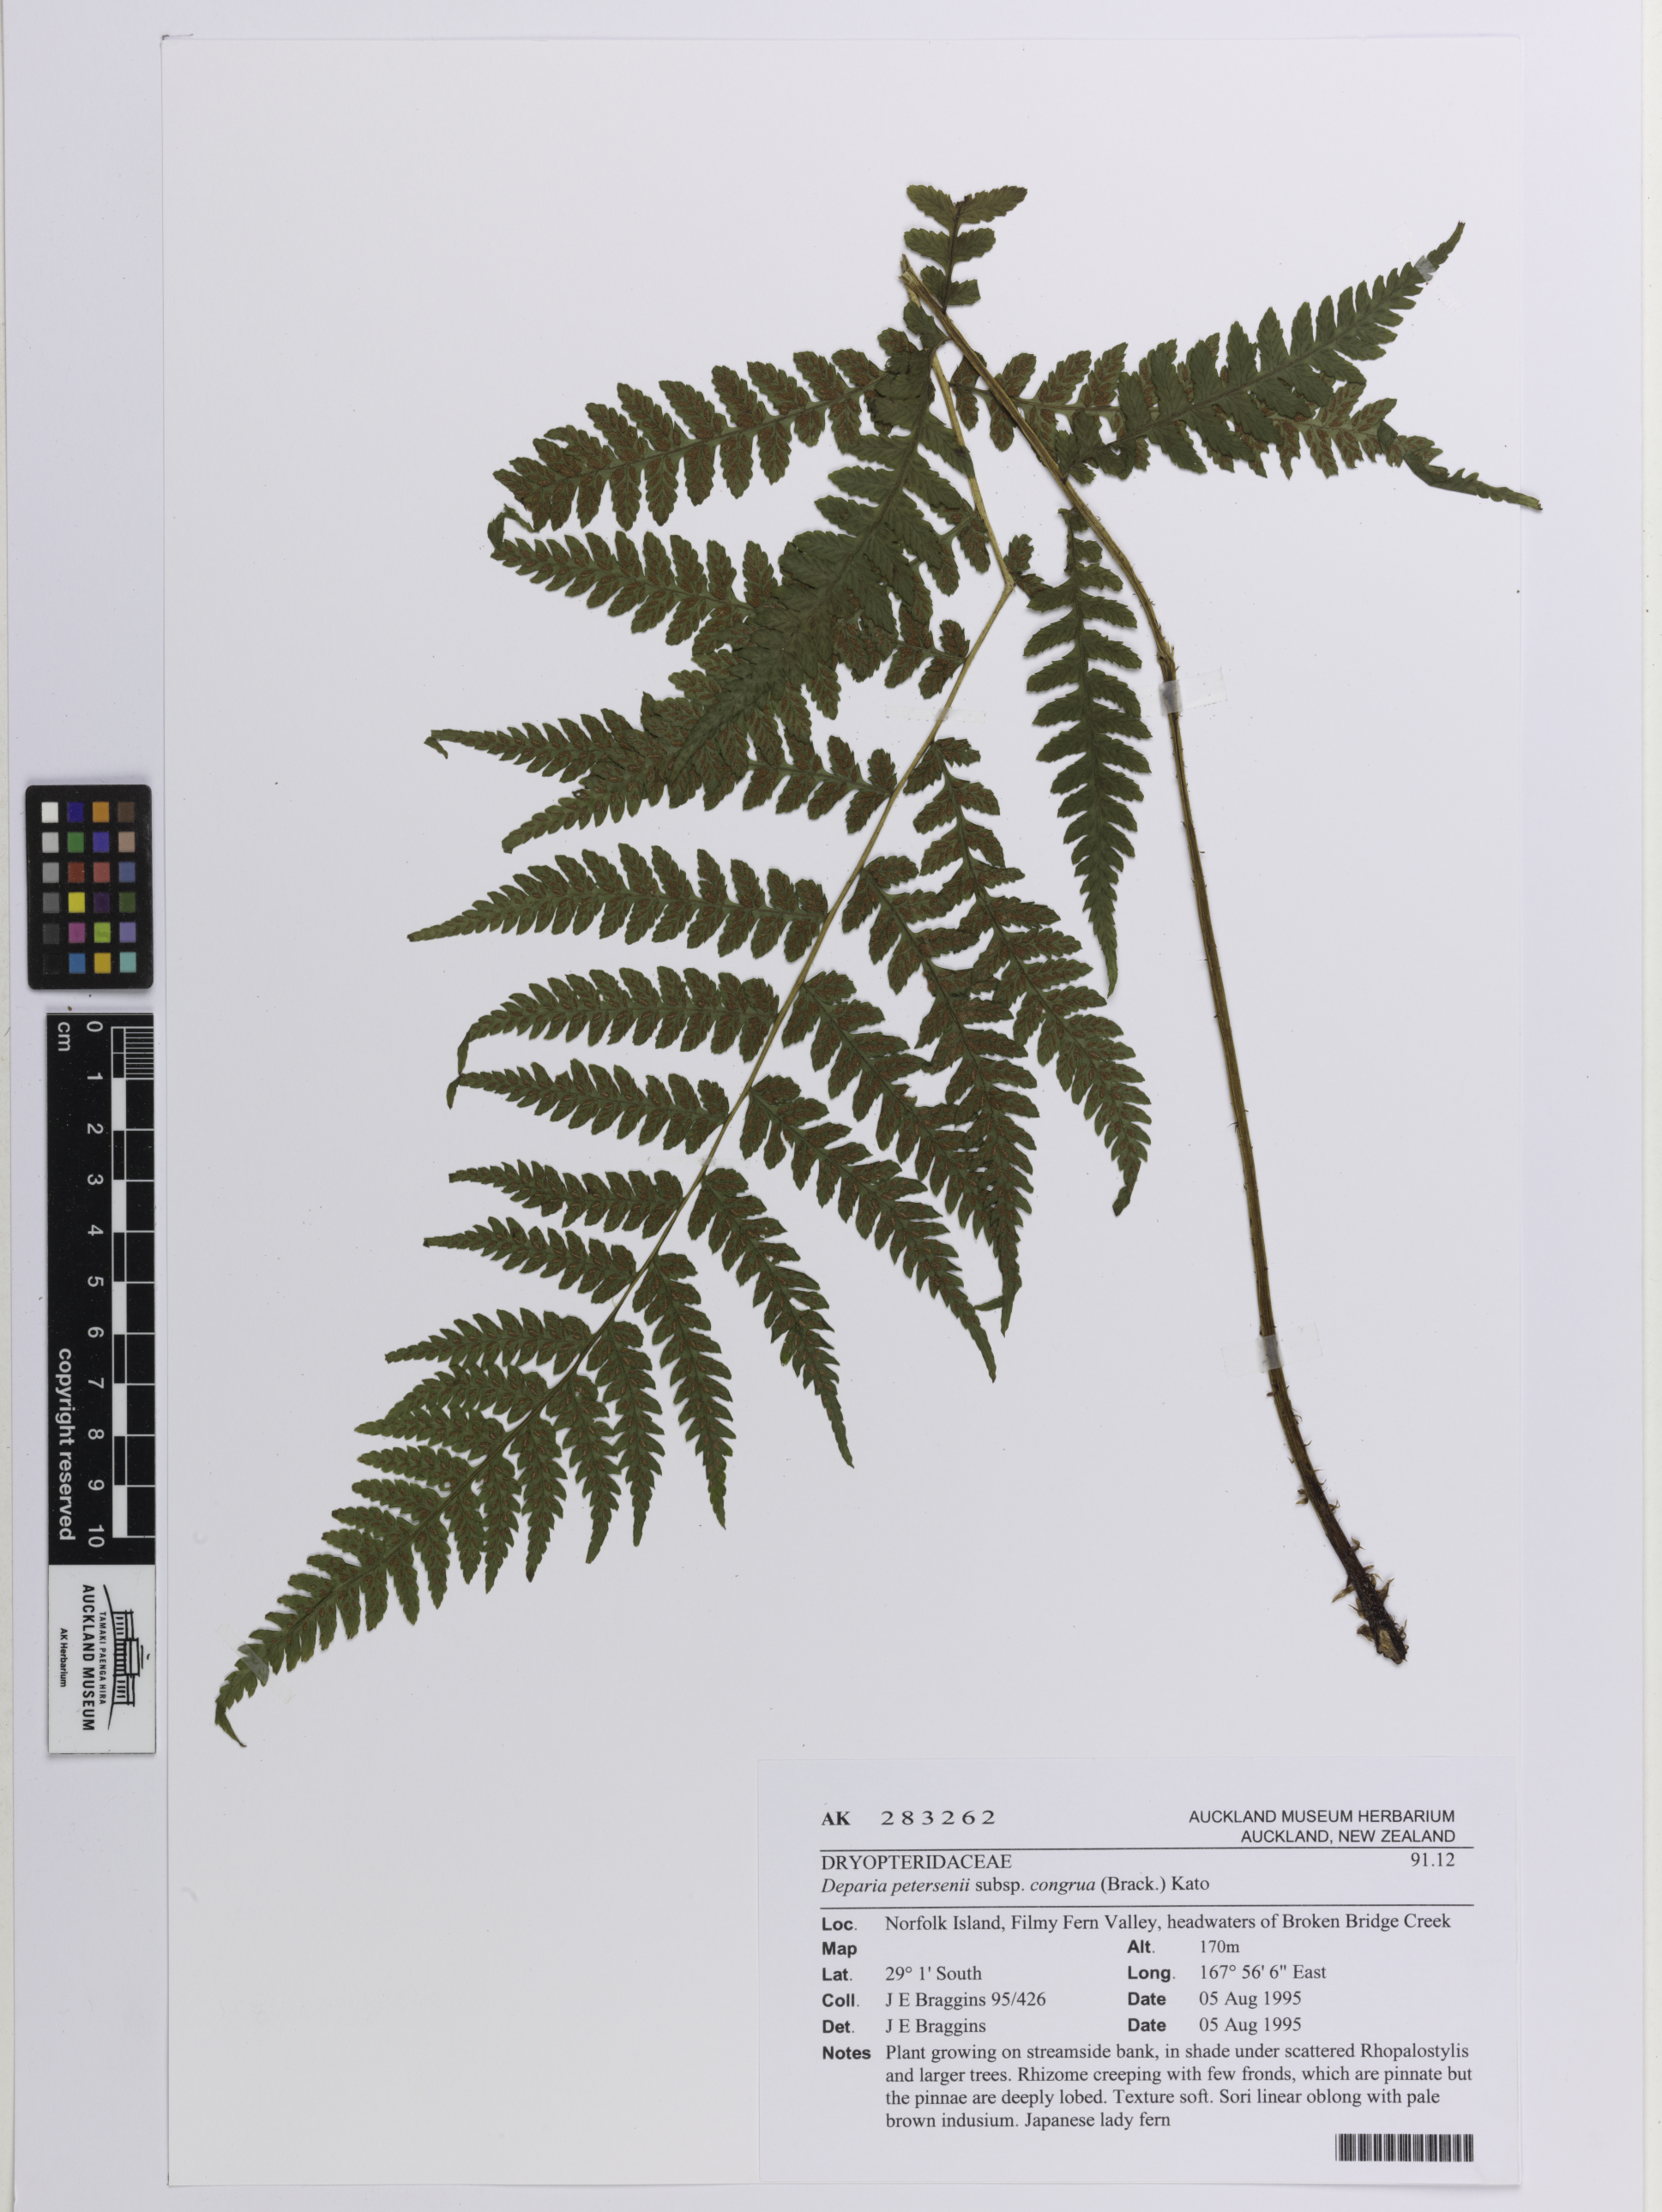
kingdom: Plantae
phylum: Tracheophyta
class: Polypodiopsida
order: Polypodiales
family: Athyriaceae
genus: Diplazium
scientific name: Diplazium congruum
